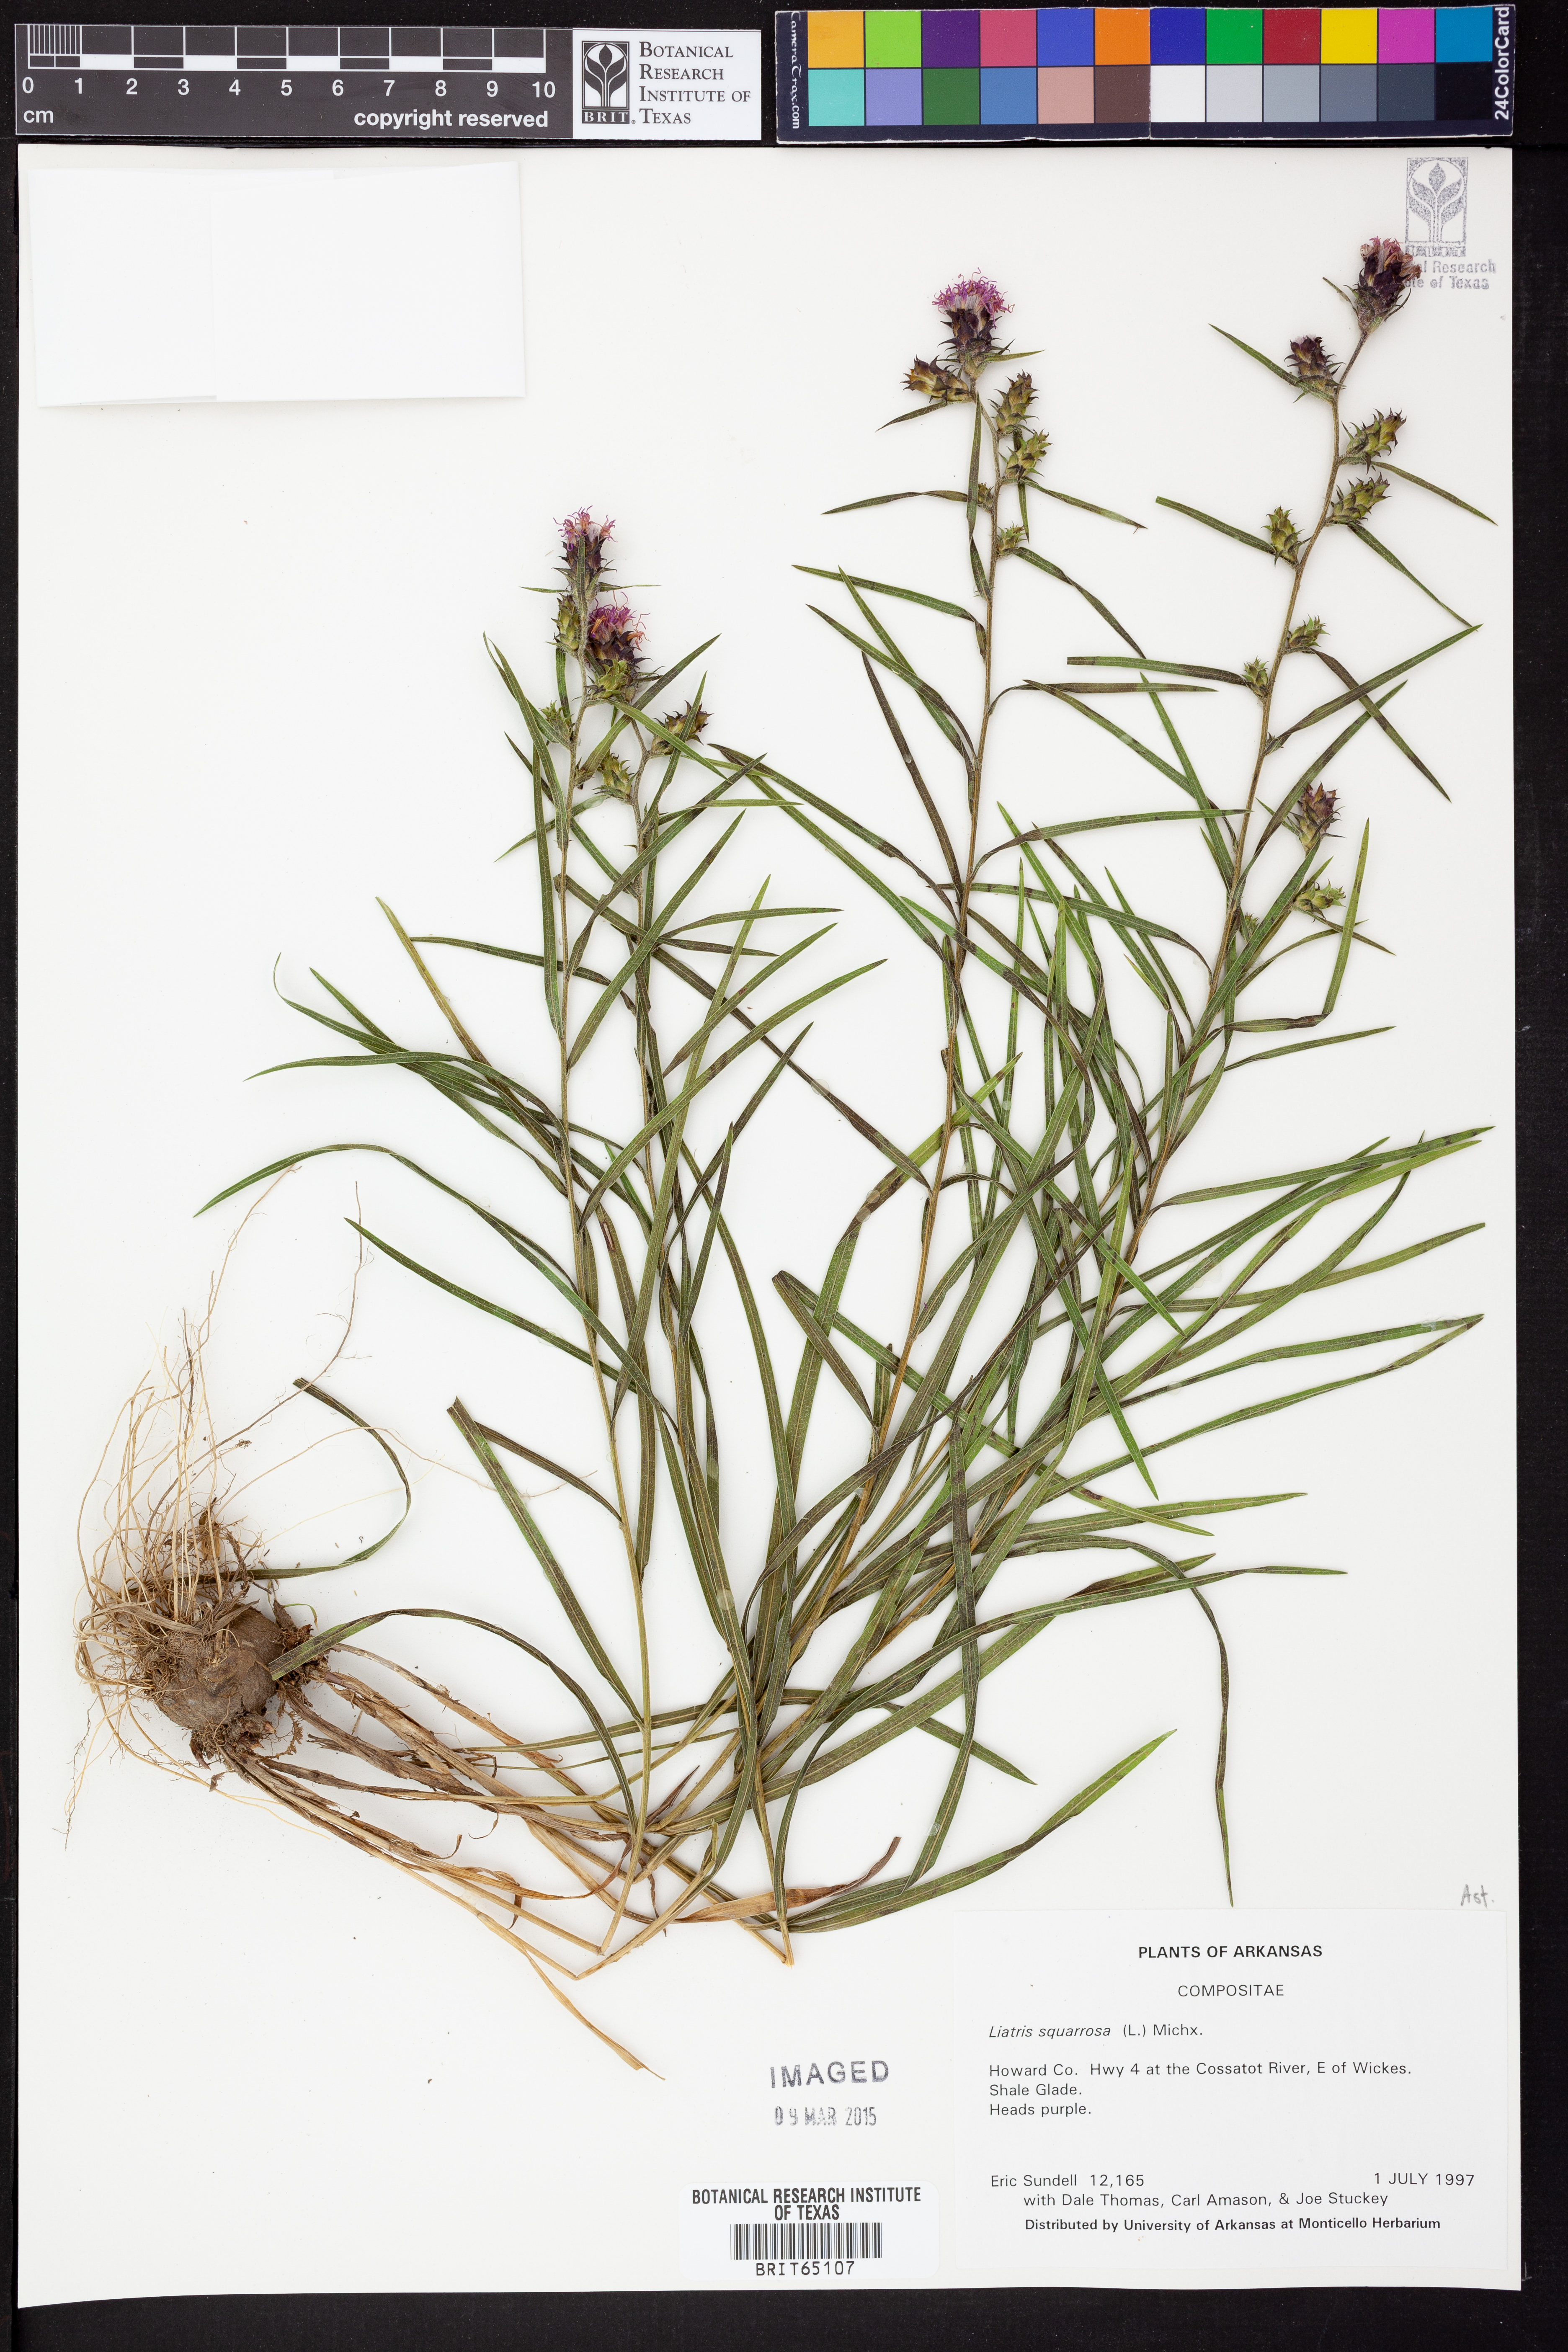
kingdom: Plantae
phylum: Tracheophyta
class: Magnoliopsida
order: Asterales
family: Asteraceae
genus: Liatris
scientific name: Liatris squarrosa
